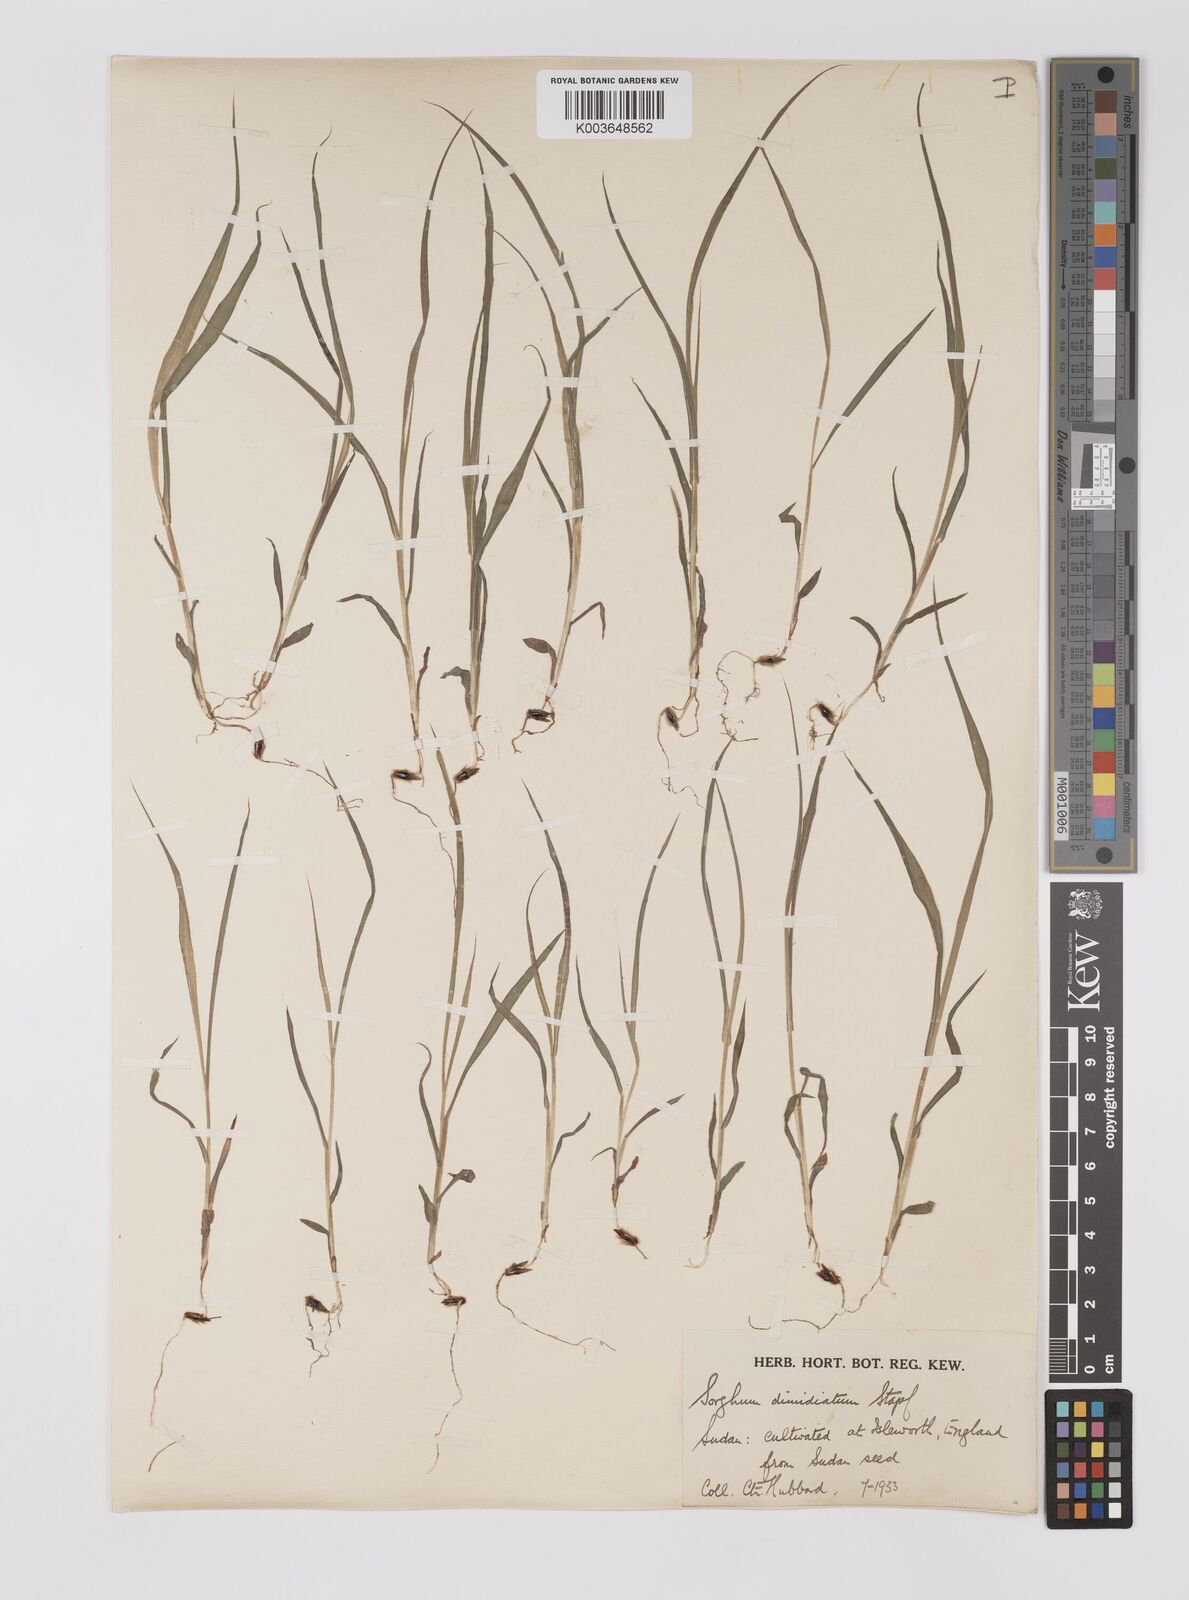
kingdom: Plantae
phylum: Tracheophyta
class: Liliopsida
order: Poales
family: Poaceae
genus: Sarga
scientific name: Sarga purpureosericea
